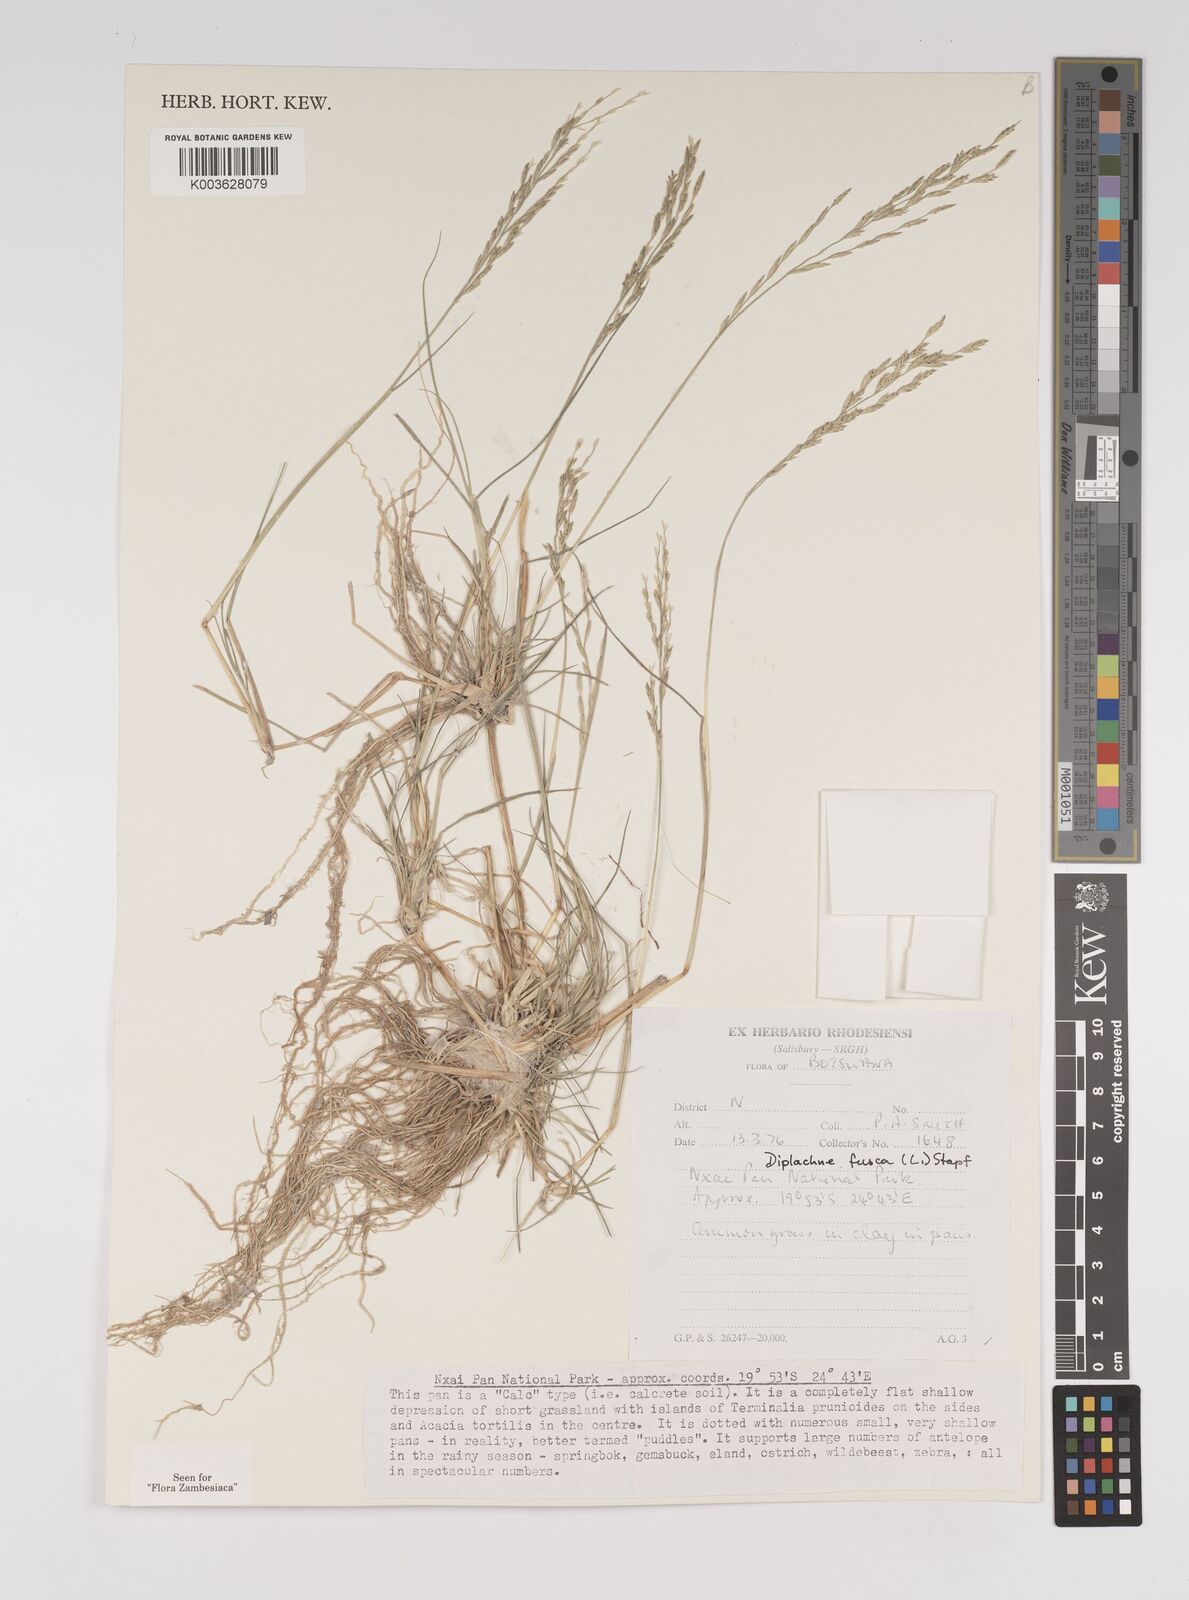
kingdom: Plantae
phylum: Tracheophyta
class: Liliopsida
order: Poales
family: Poaceae
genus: Diplachne
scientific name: Diplachne fusca
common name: Brown beetle grass
